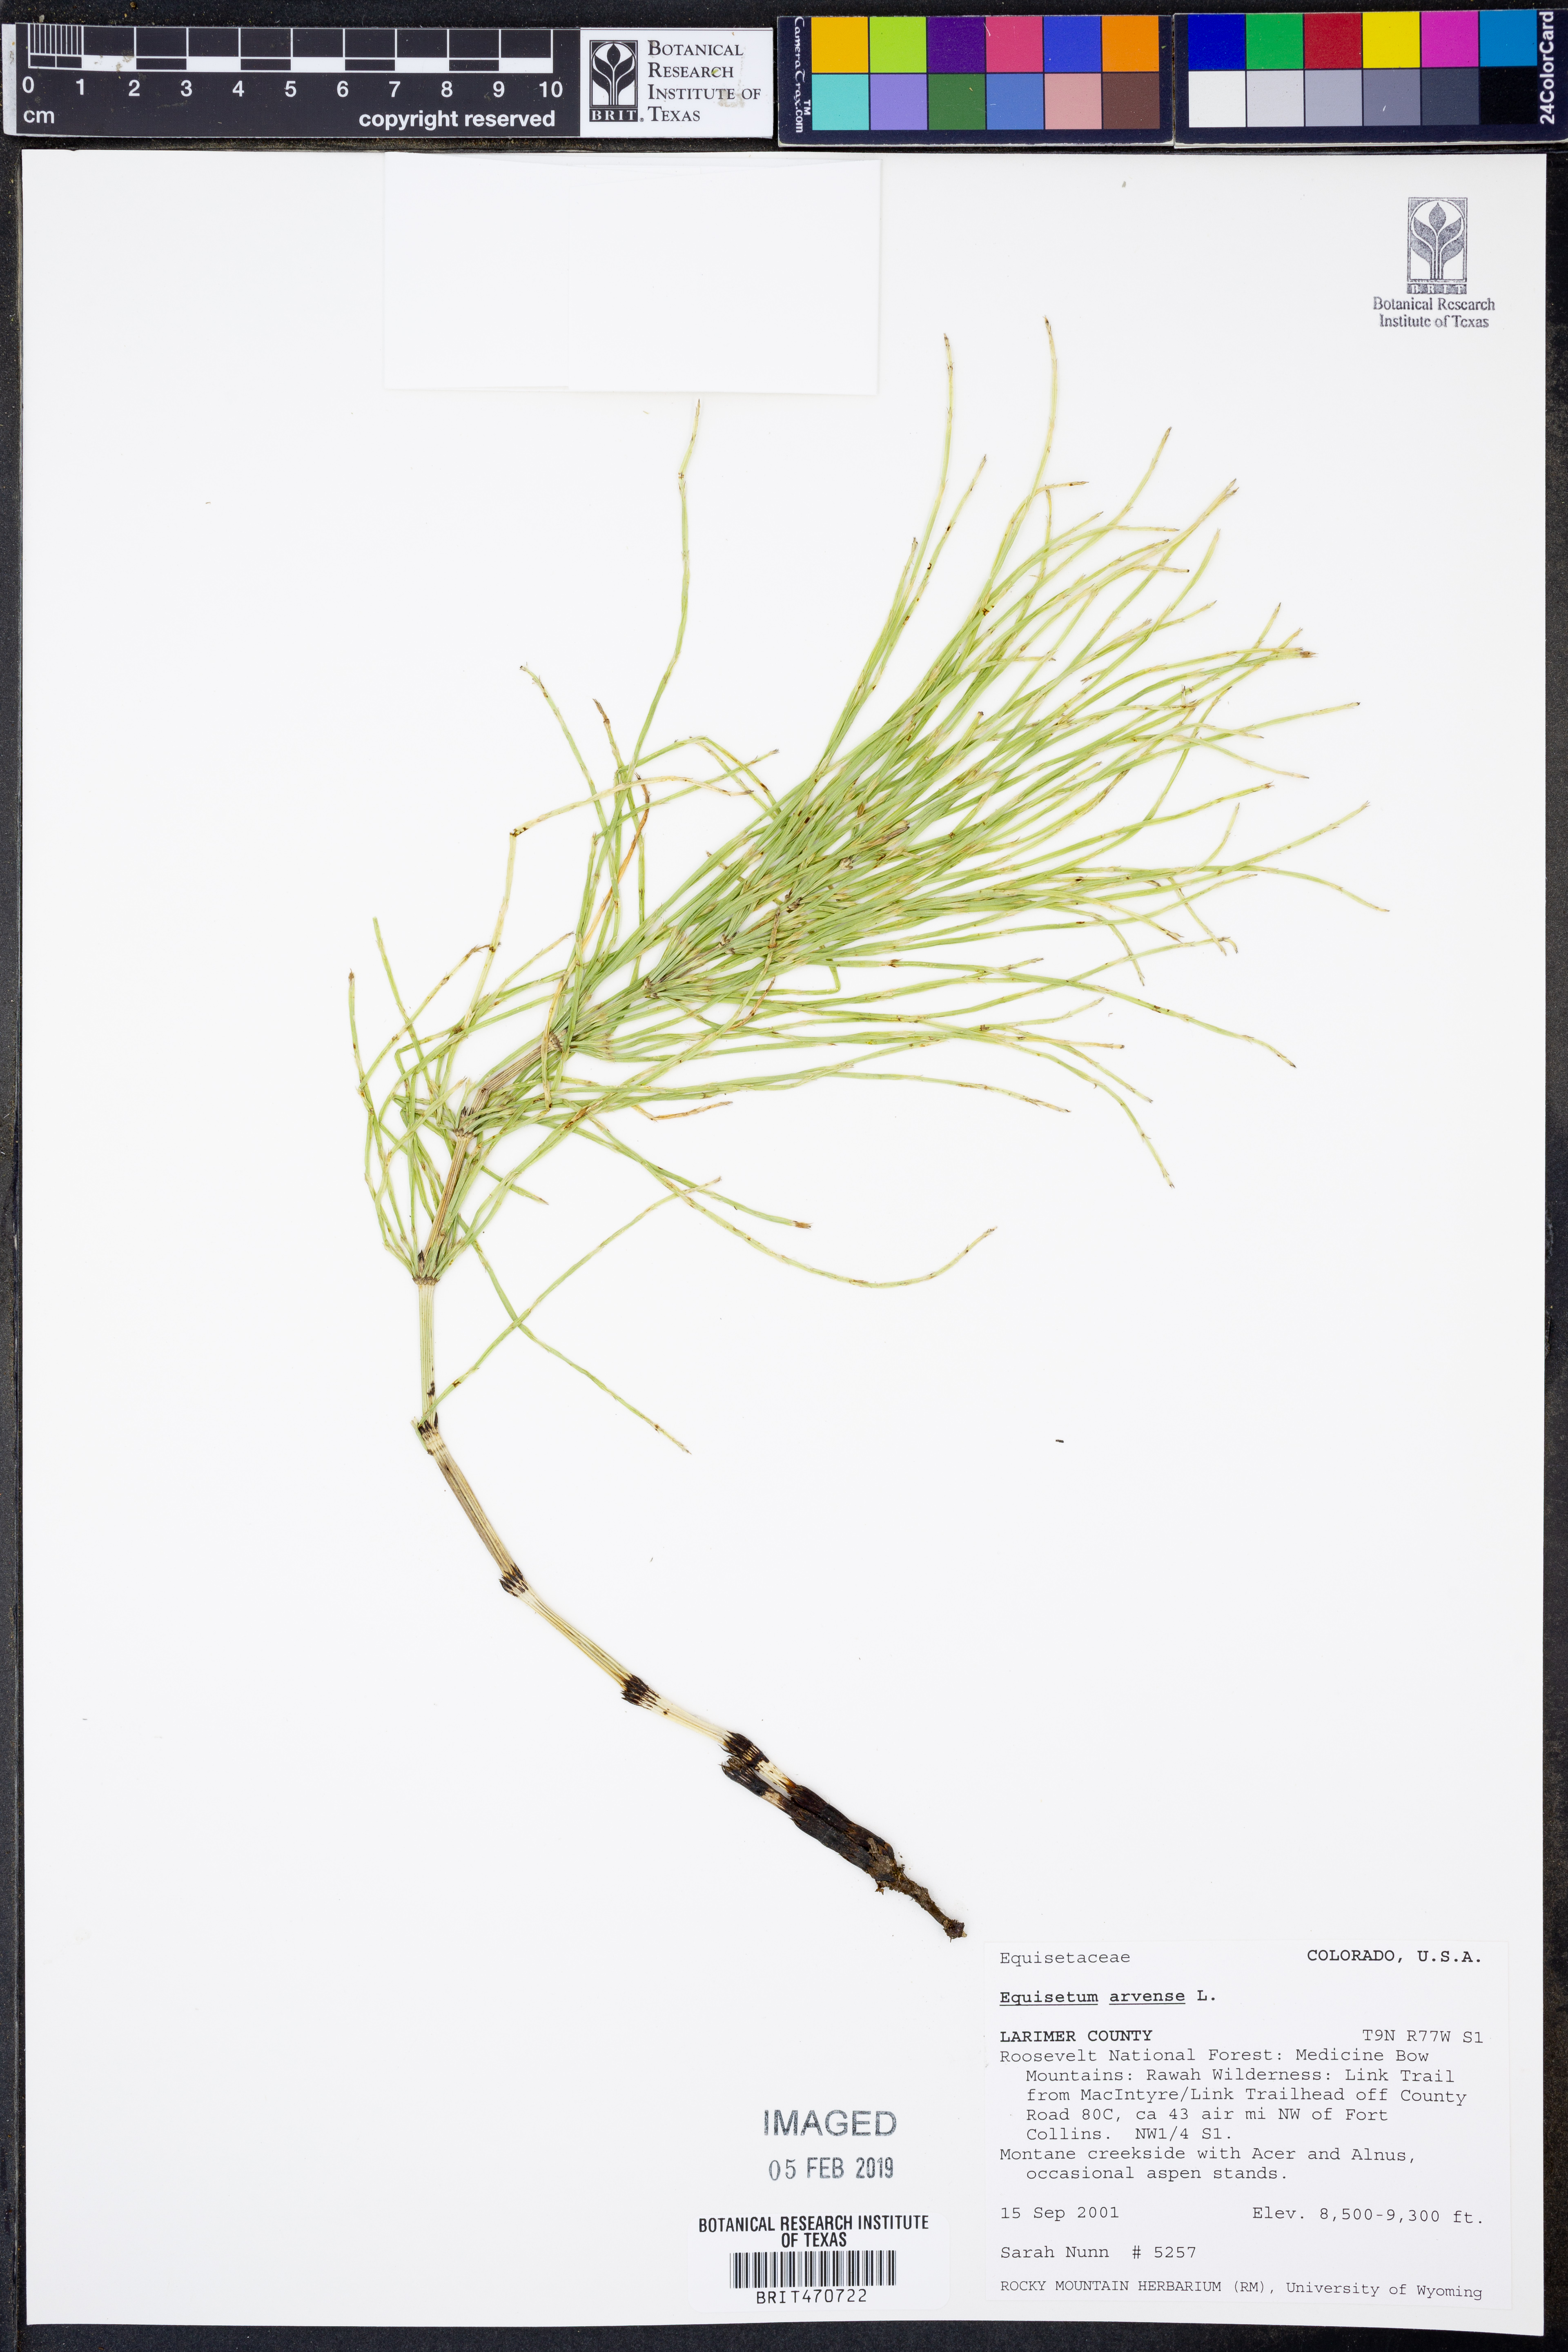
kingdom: Plantae
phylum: Tracheophyta
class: Polypodiopsida
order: Equisetales
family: Equisetaceae
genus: Equisetum
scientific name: Equisetum arvense
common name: Field horsetail
